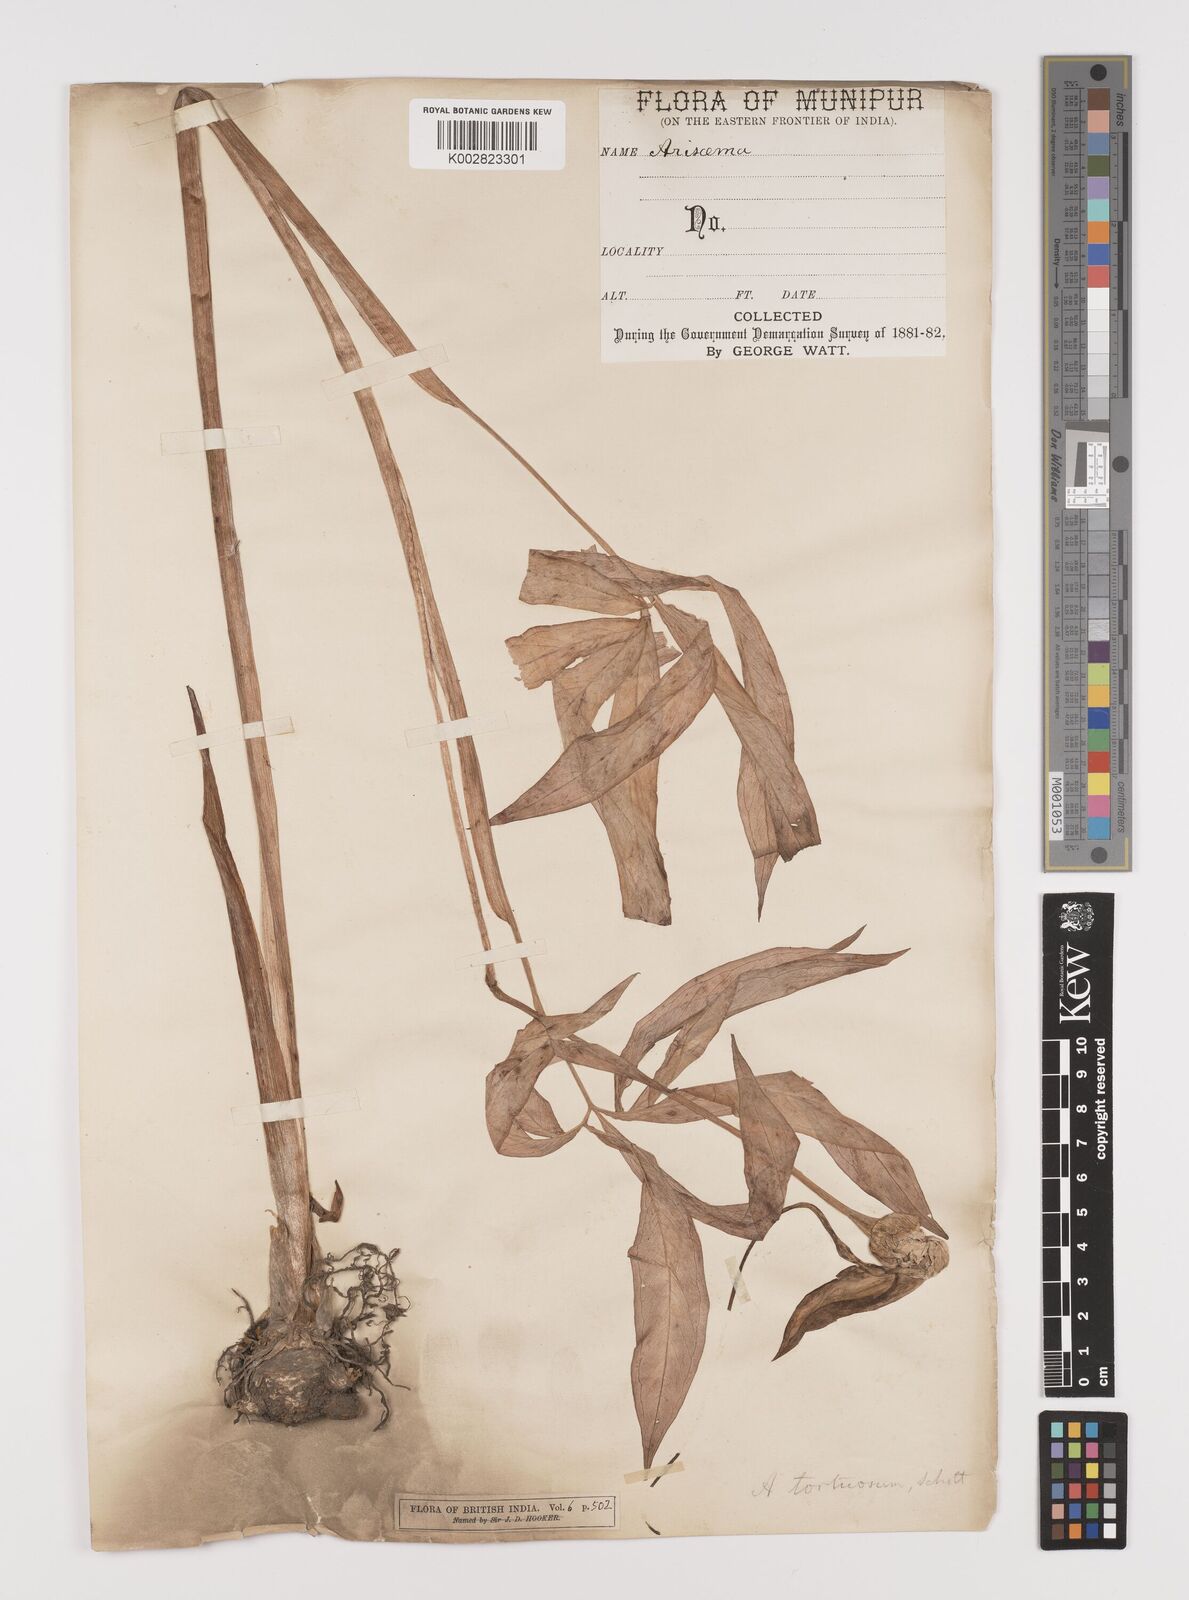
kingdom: Plantae
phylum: Tracheophyta
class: Liliopsida
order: Alismatales
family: Araceae
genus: Arisaema
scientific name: Arisaema tortuosum
